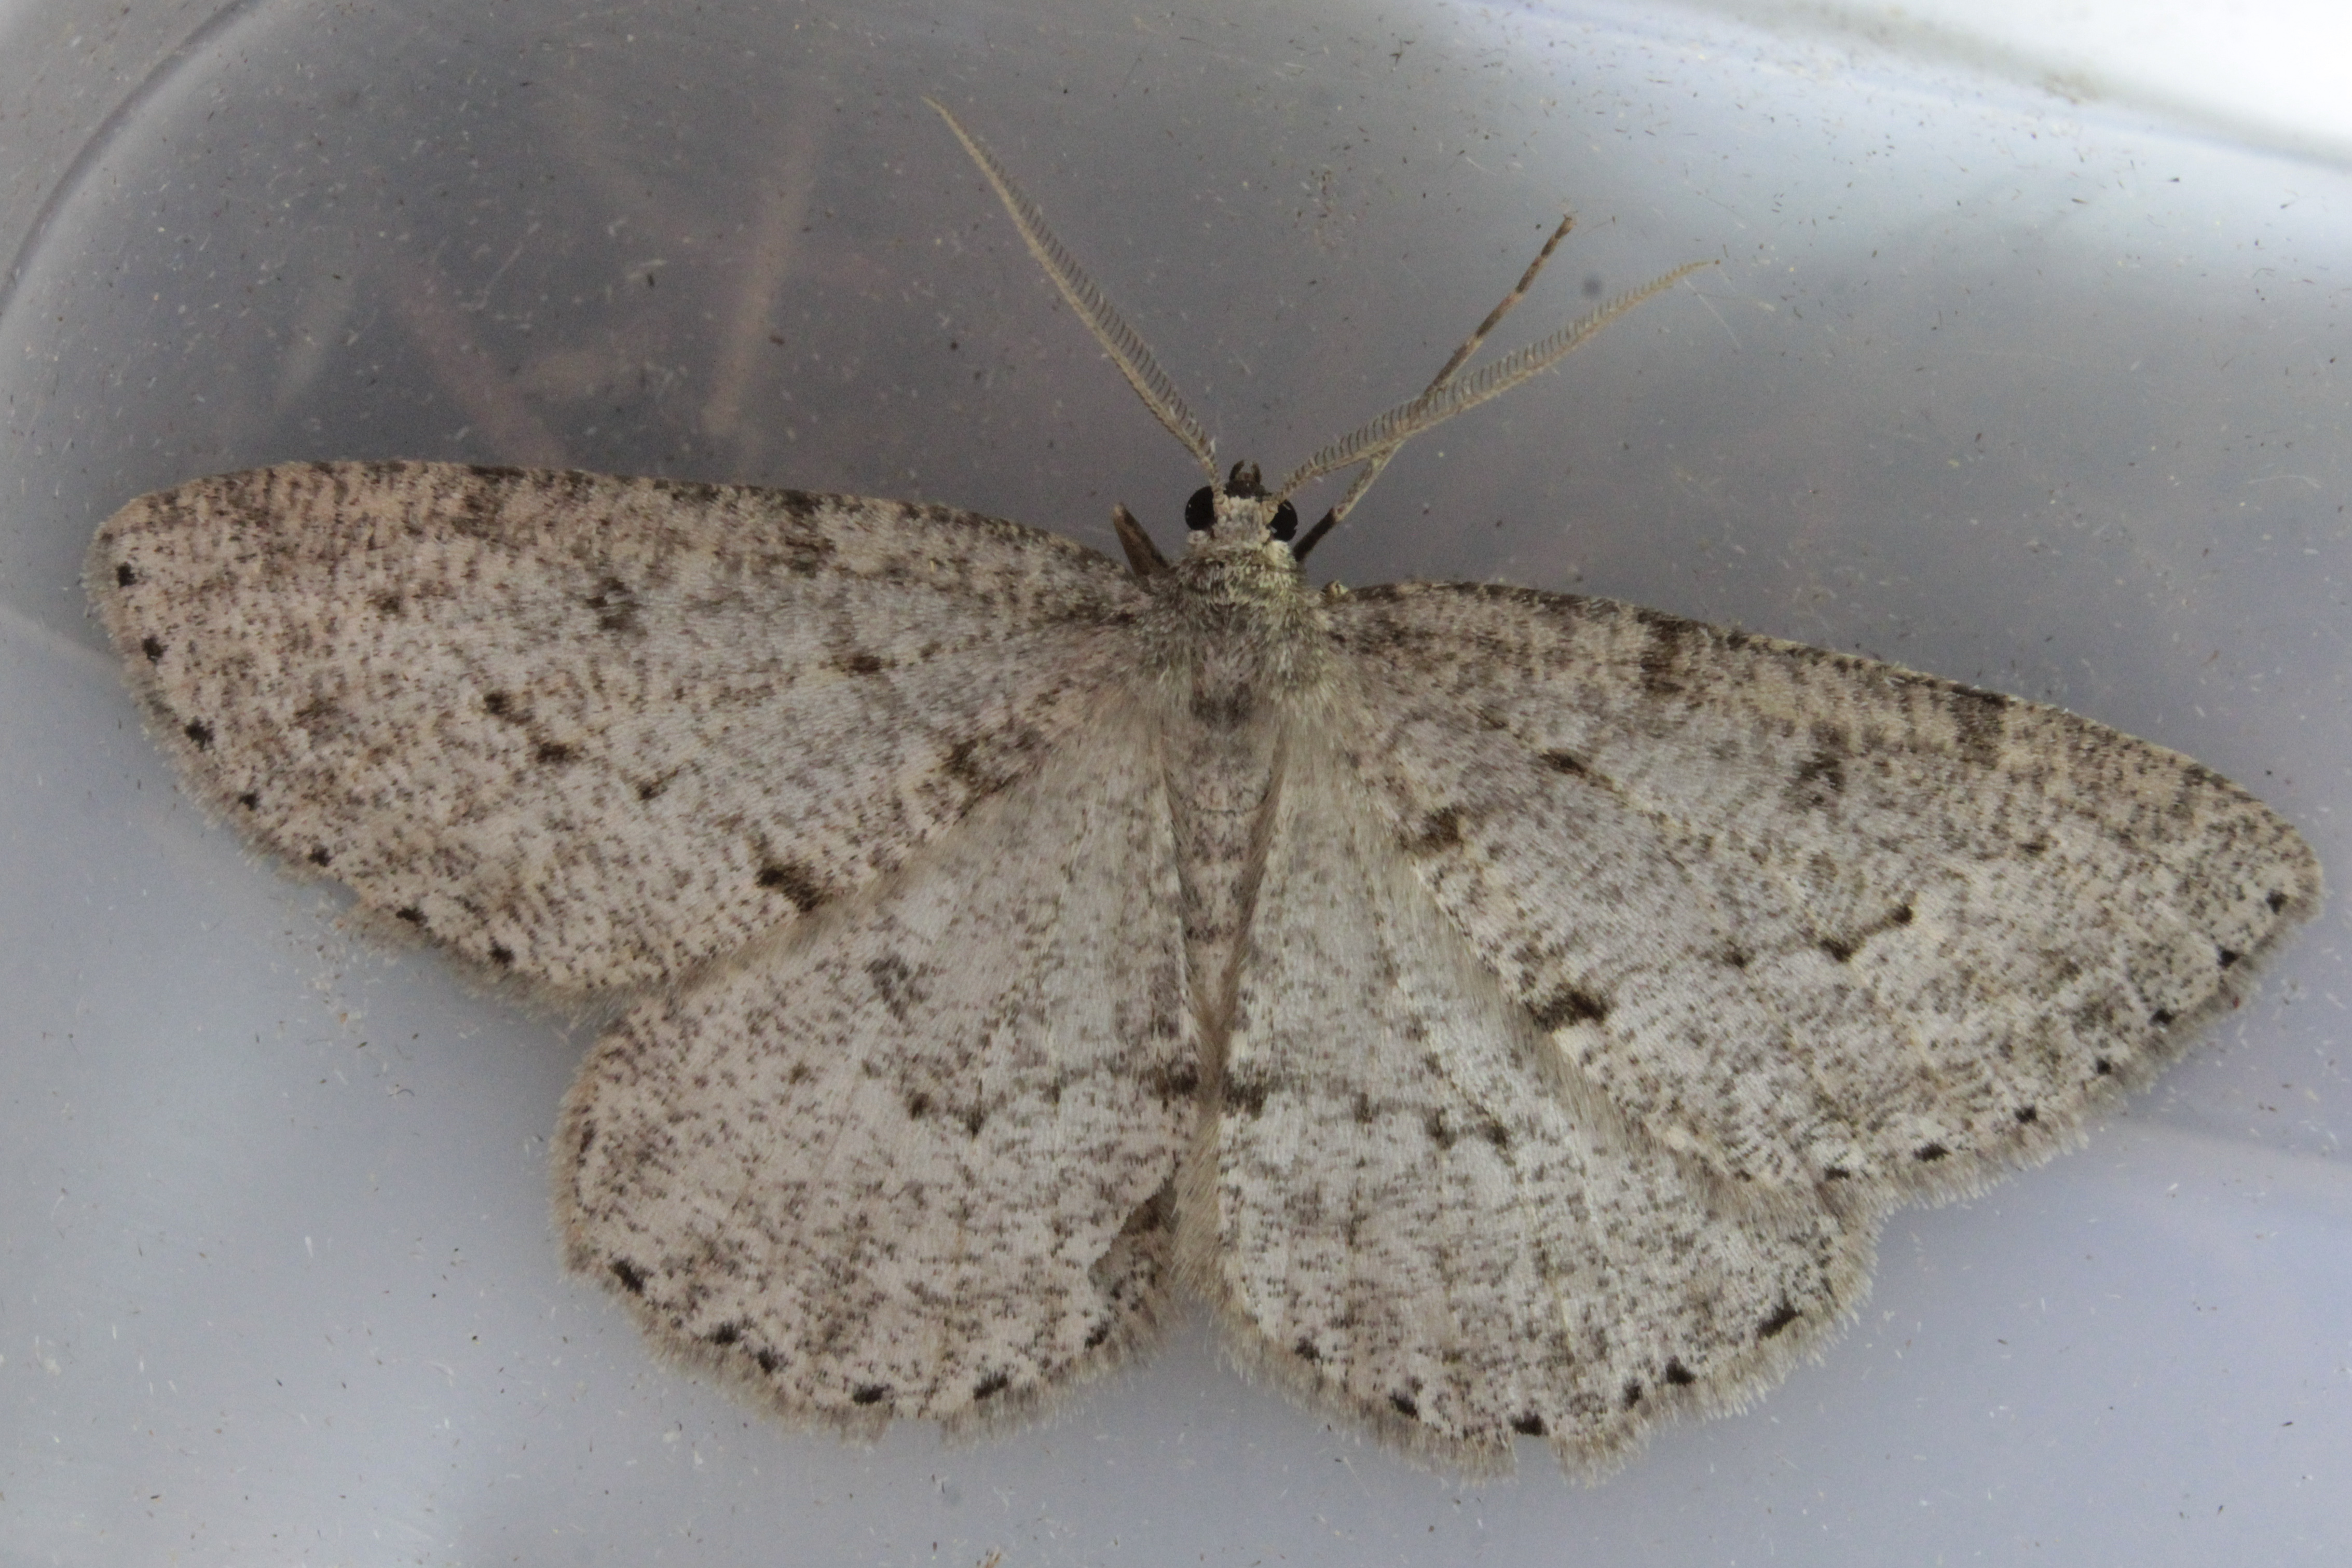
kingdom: Animalia
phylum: Arthropoda
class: Insecta
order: Lepidoptera
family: Geometridae
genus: Hypomecis
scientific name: Hypomecis punctinalis
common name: Pale oak beauty
